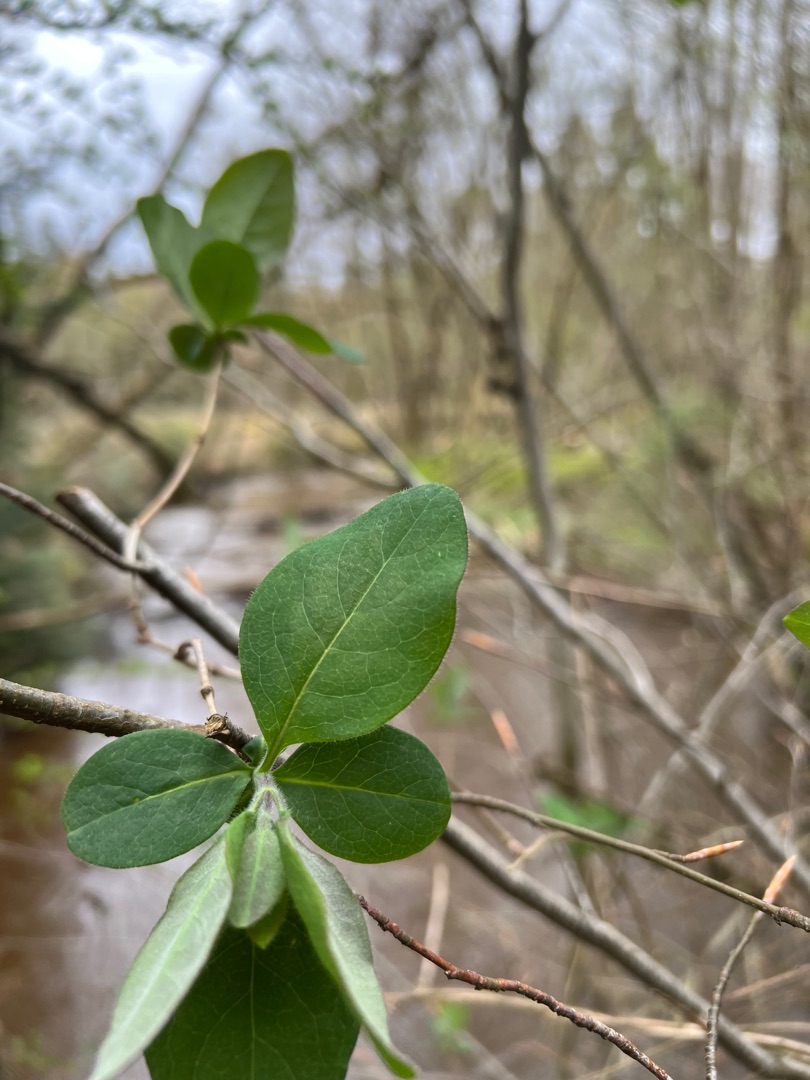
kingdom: Plantae
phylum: Tracheophyta
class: Magnoliopsida
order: Dipsacales
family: Caprifoliaceae
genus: Lonicera
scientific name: Lonicera periclymenum
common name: Almindelig gedeblad
